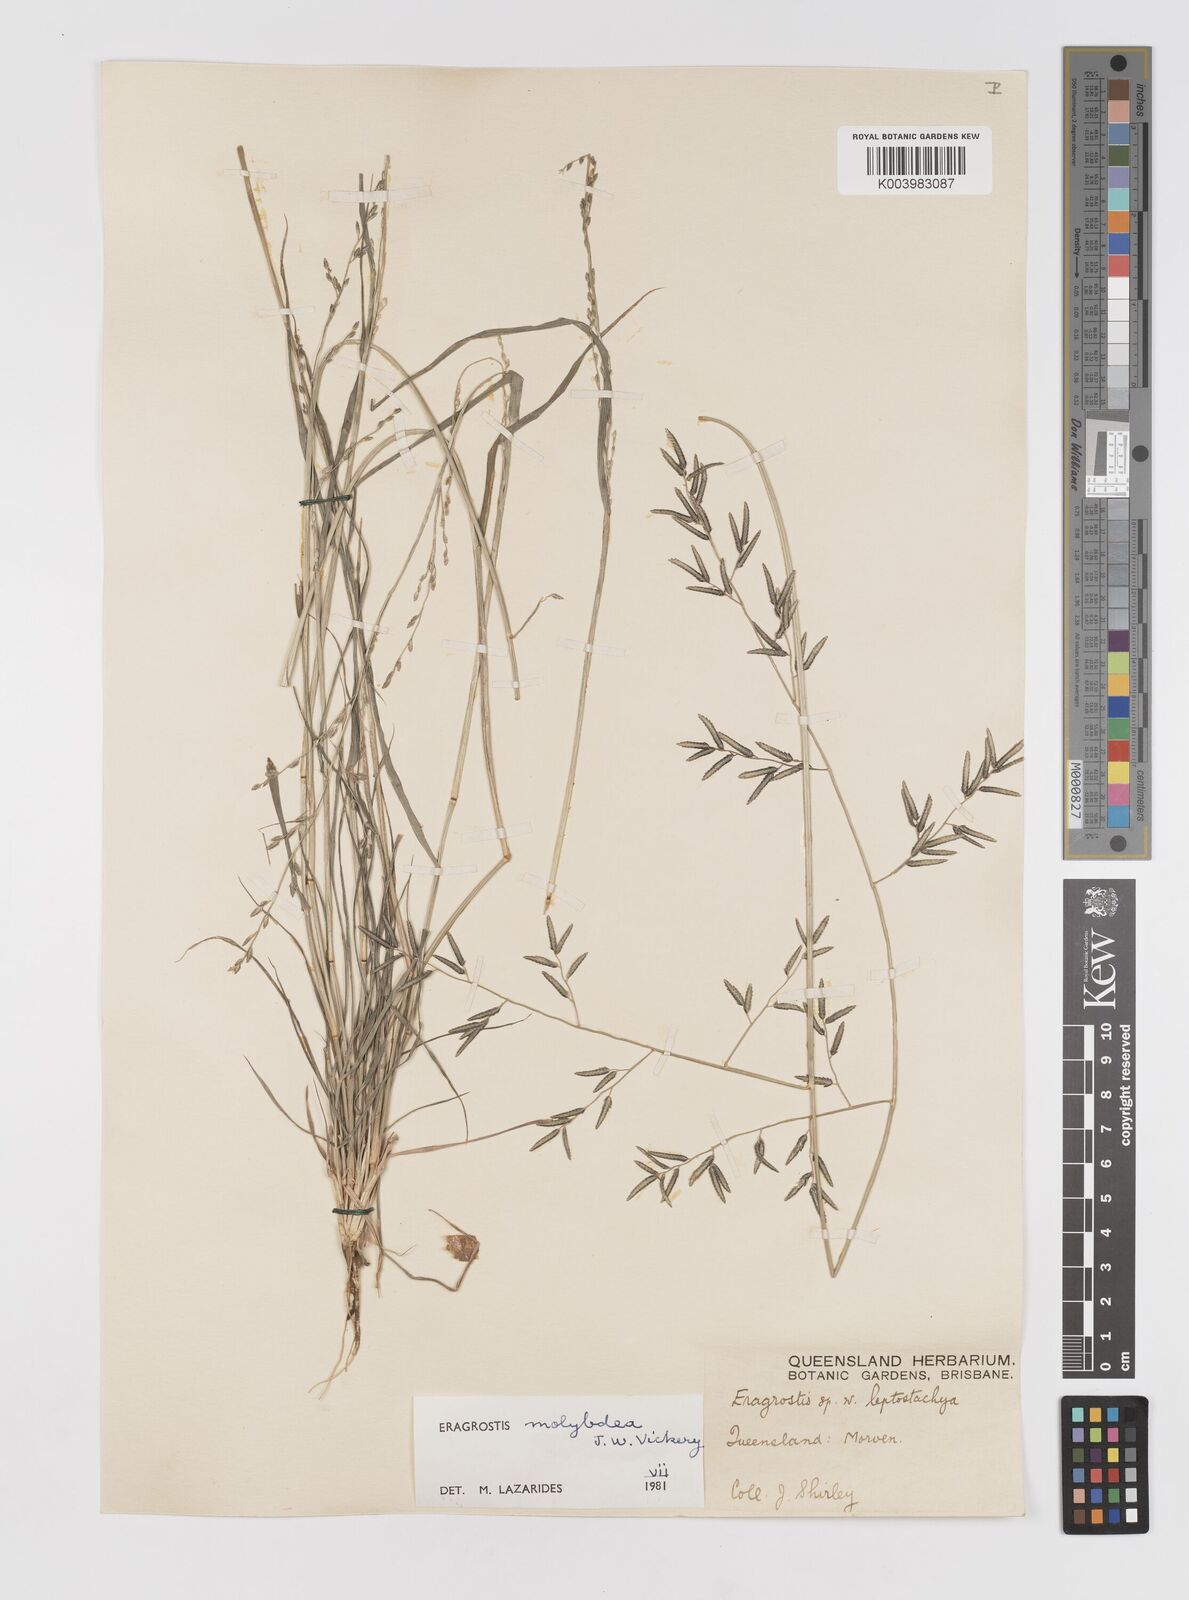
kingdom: Plantae
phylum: Tracheophyta
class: Liliopsida
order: Poales
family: Poaceae
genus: Eragrostis
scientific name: Eragrostis leptostachya
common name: Australian lovegrass
